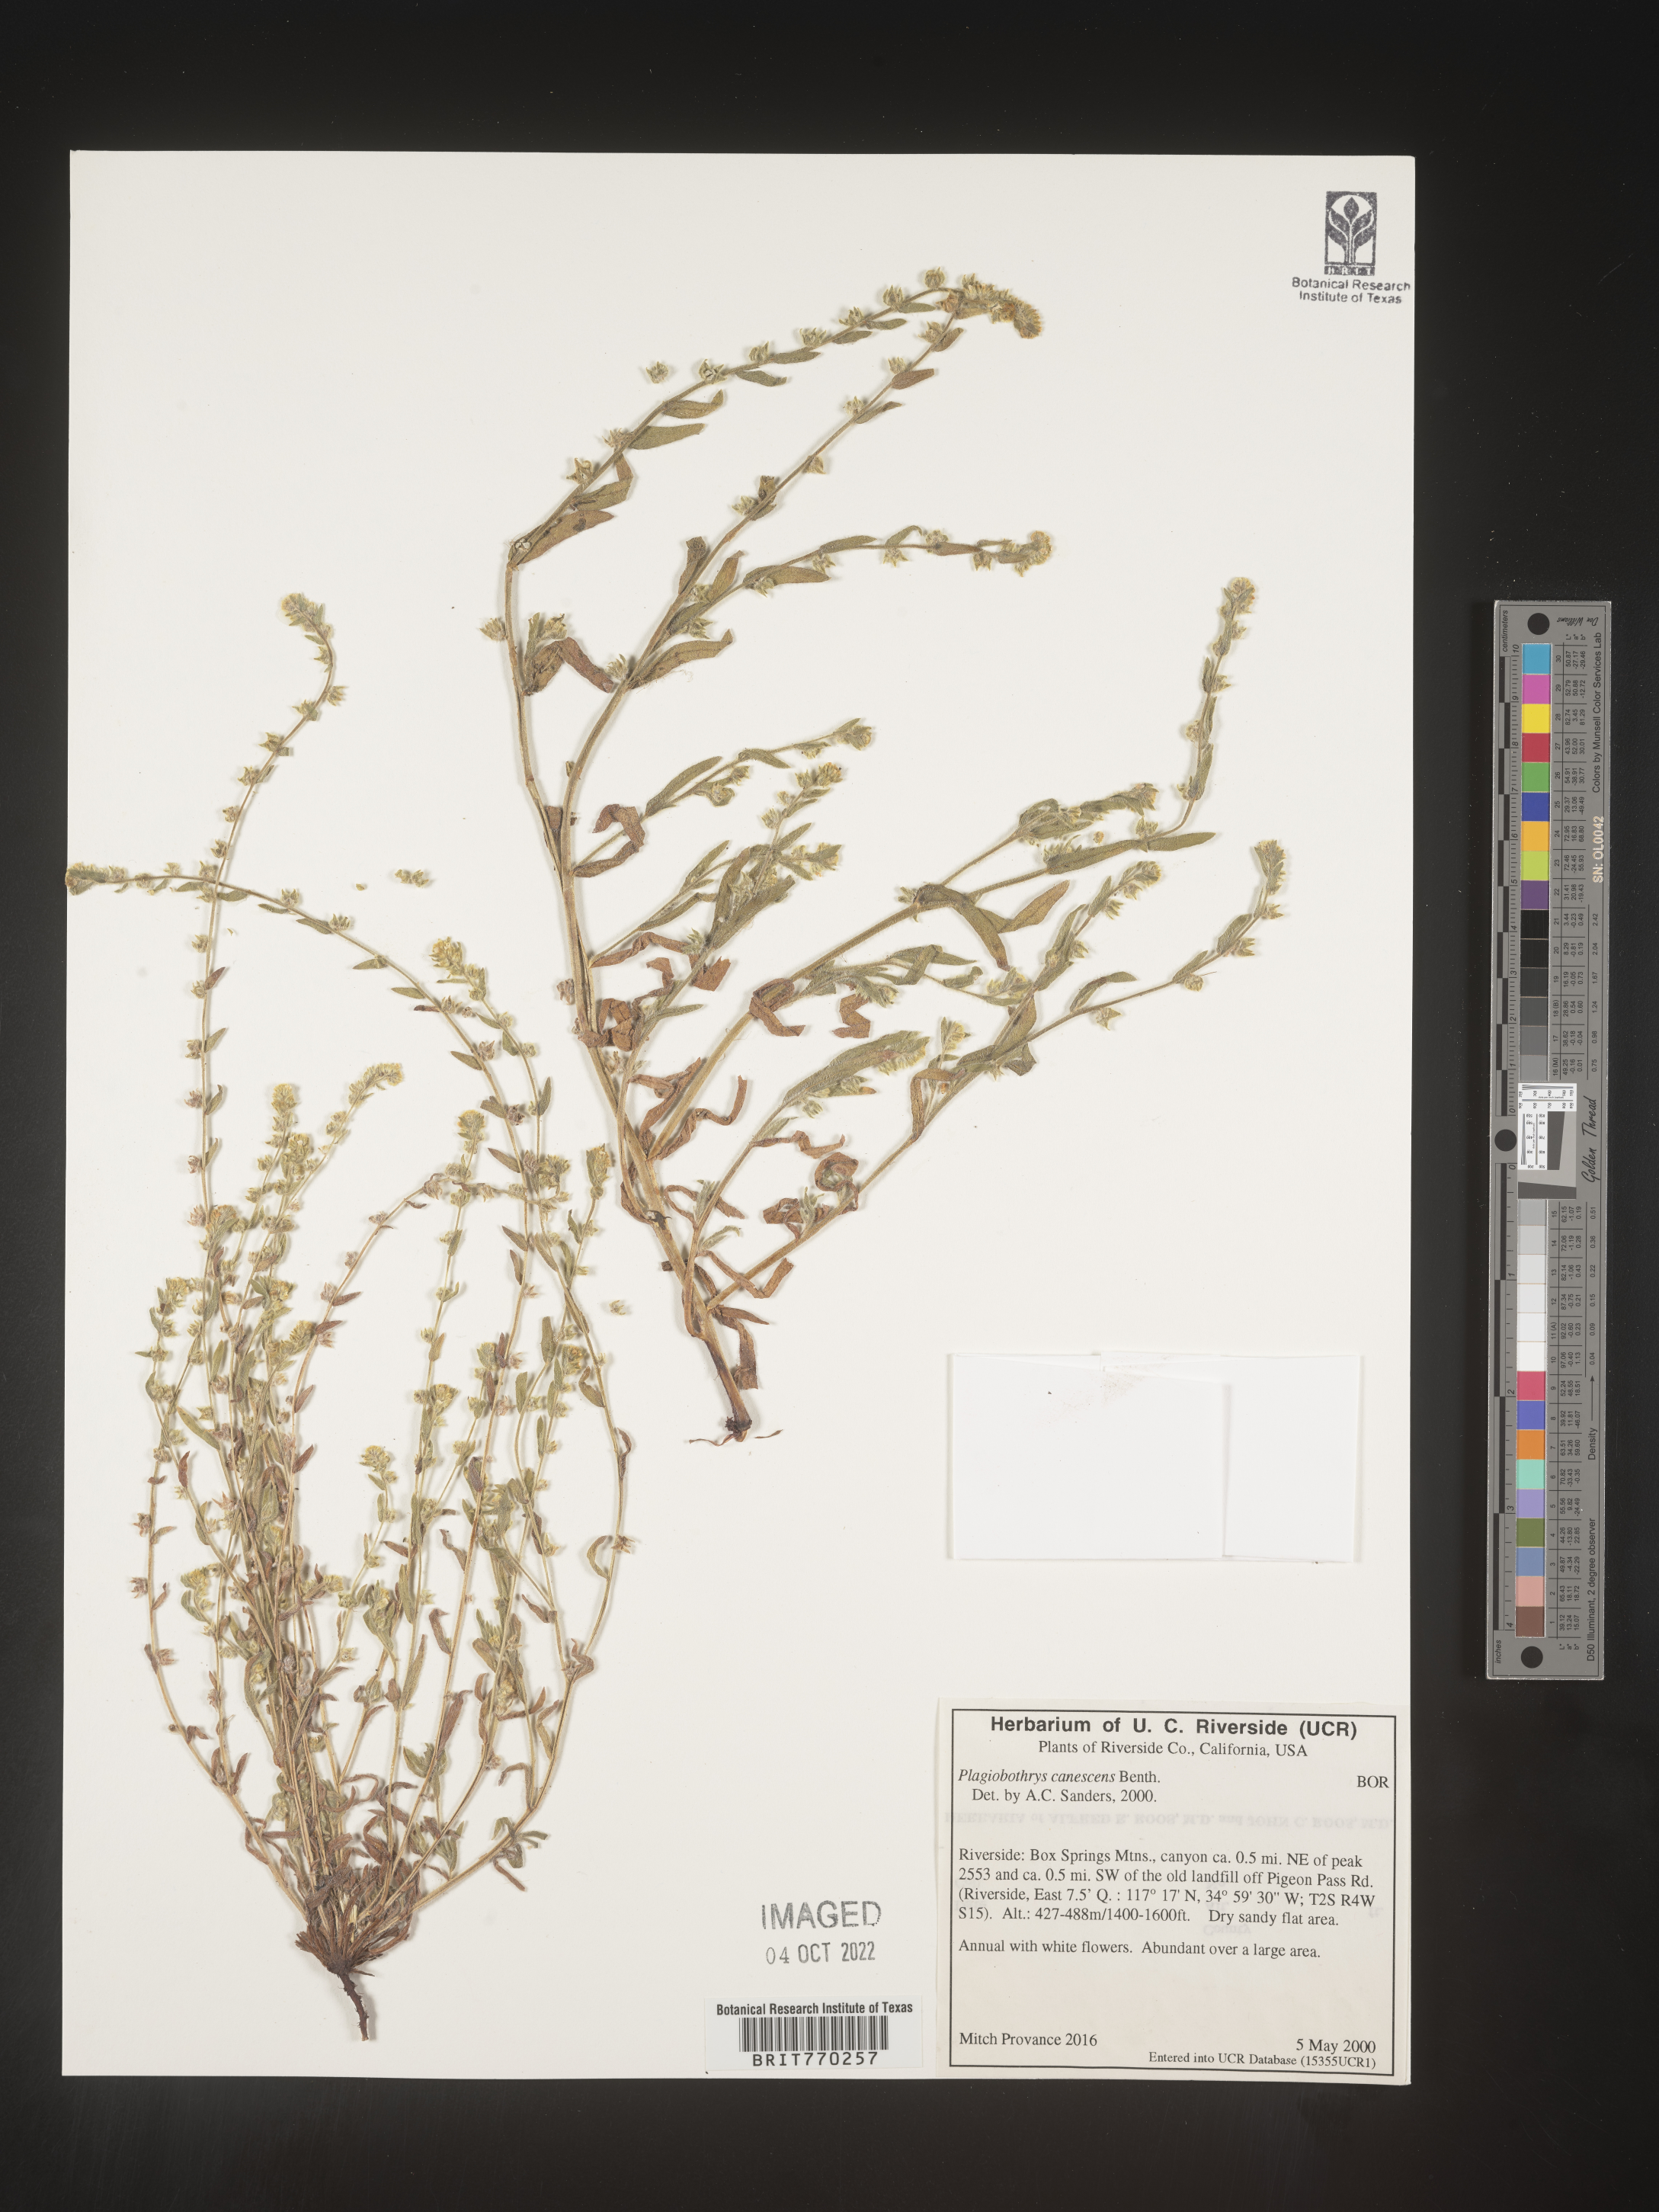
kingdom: Plantae
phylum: Tracheophyta
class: Magnoliopsida
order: Boraginales
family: Boraginaceae
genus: Plagiobothrys
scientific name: Plagiobothrys
